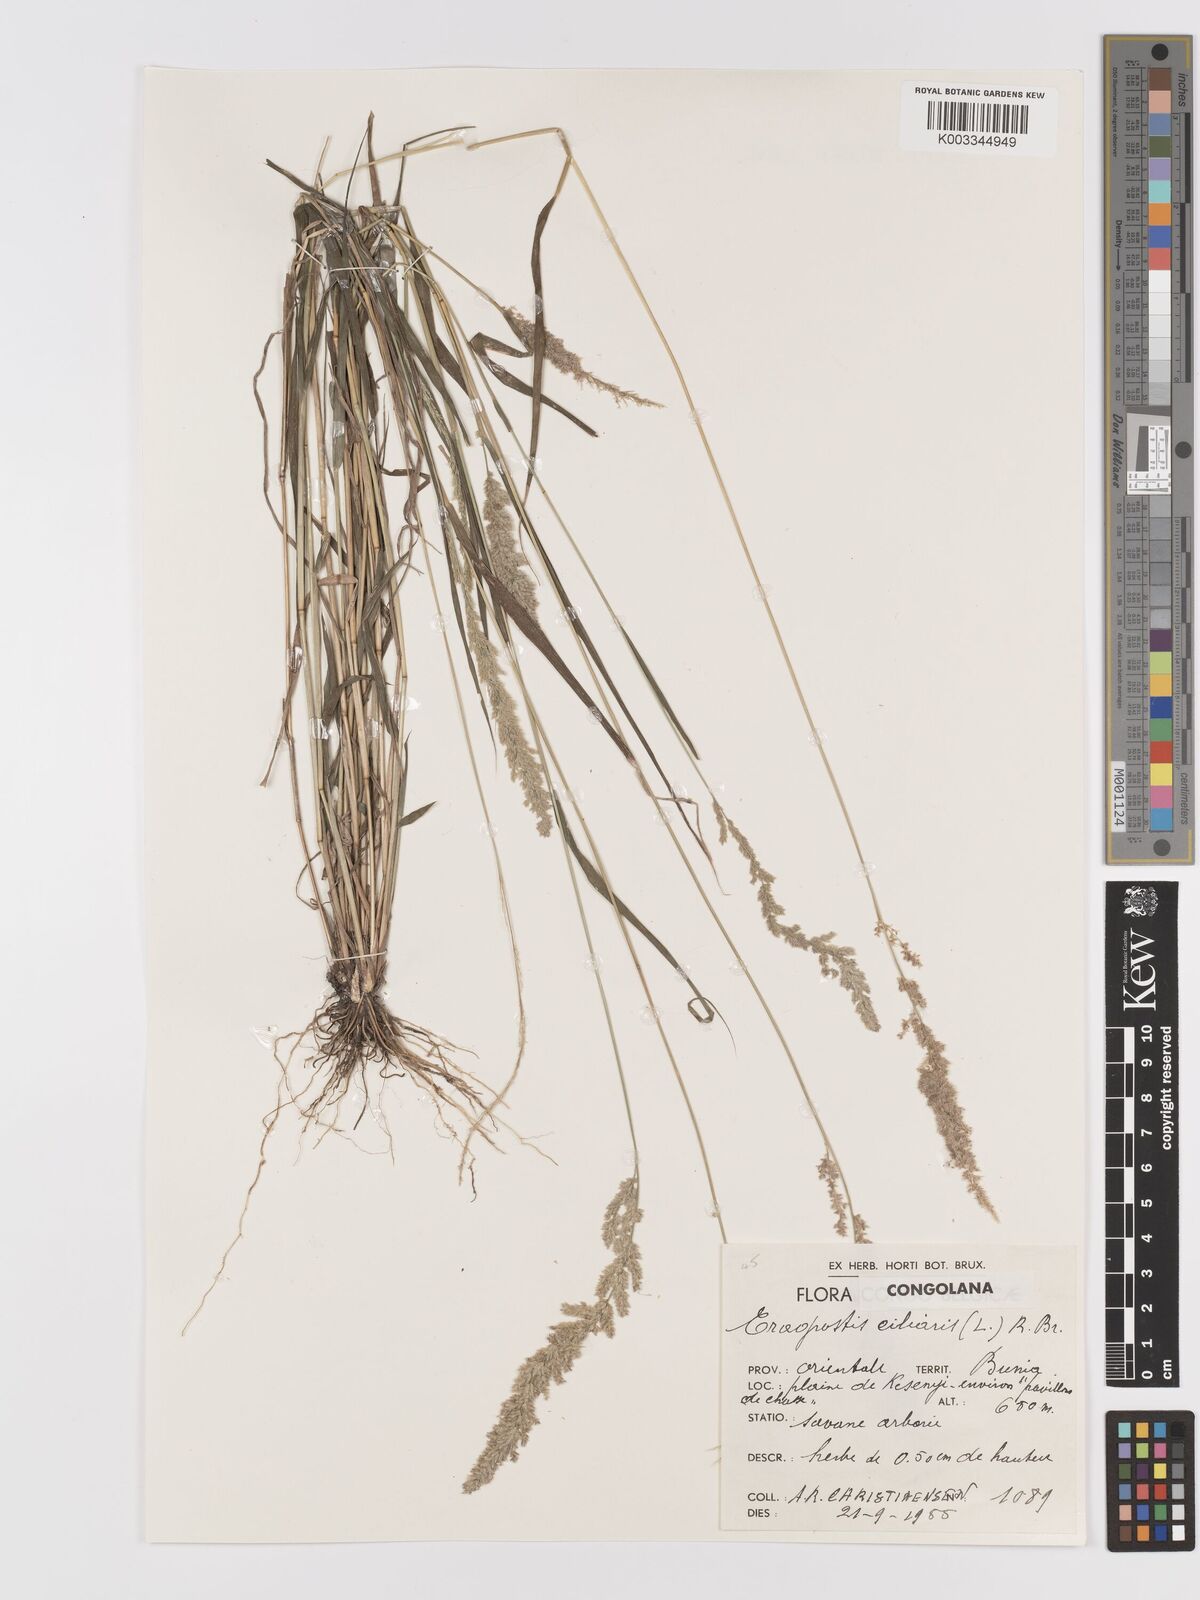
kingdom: Plantae
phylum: Tracheophyta
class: Liliopsida
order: Poales
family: Poaceae
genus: Eragrostis
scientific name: Eragrostis ciliaris
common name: Gophertail lovegrass
